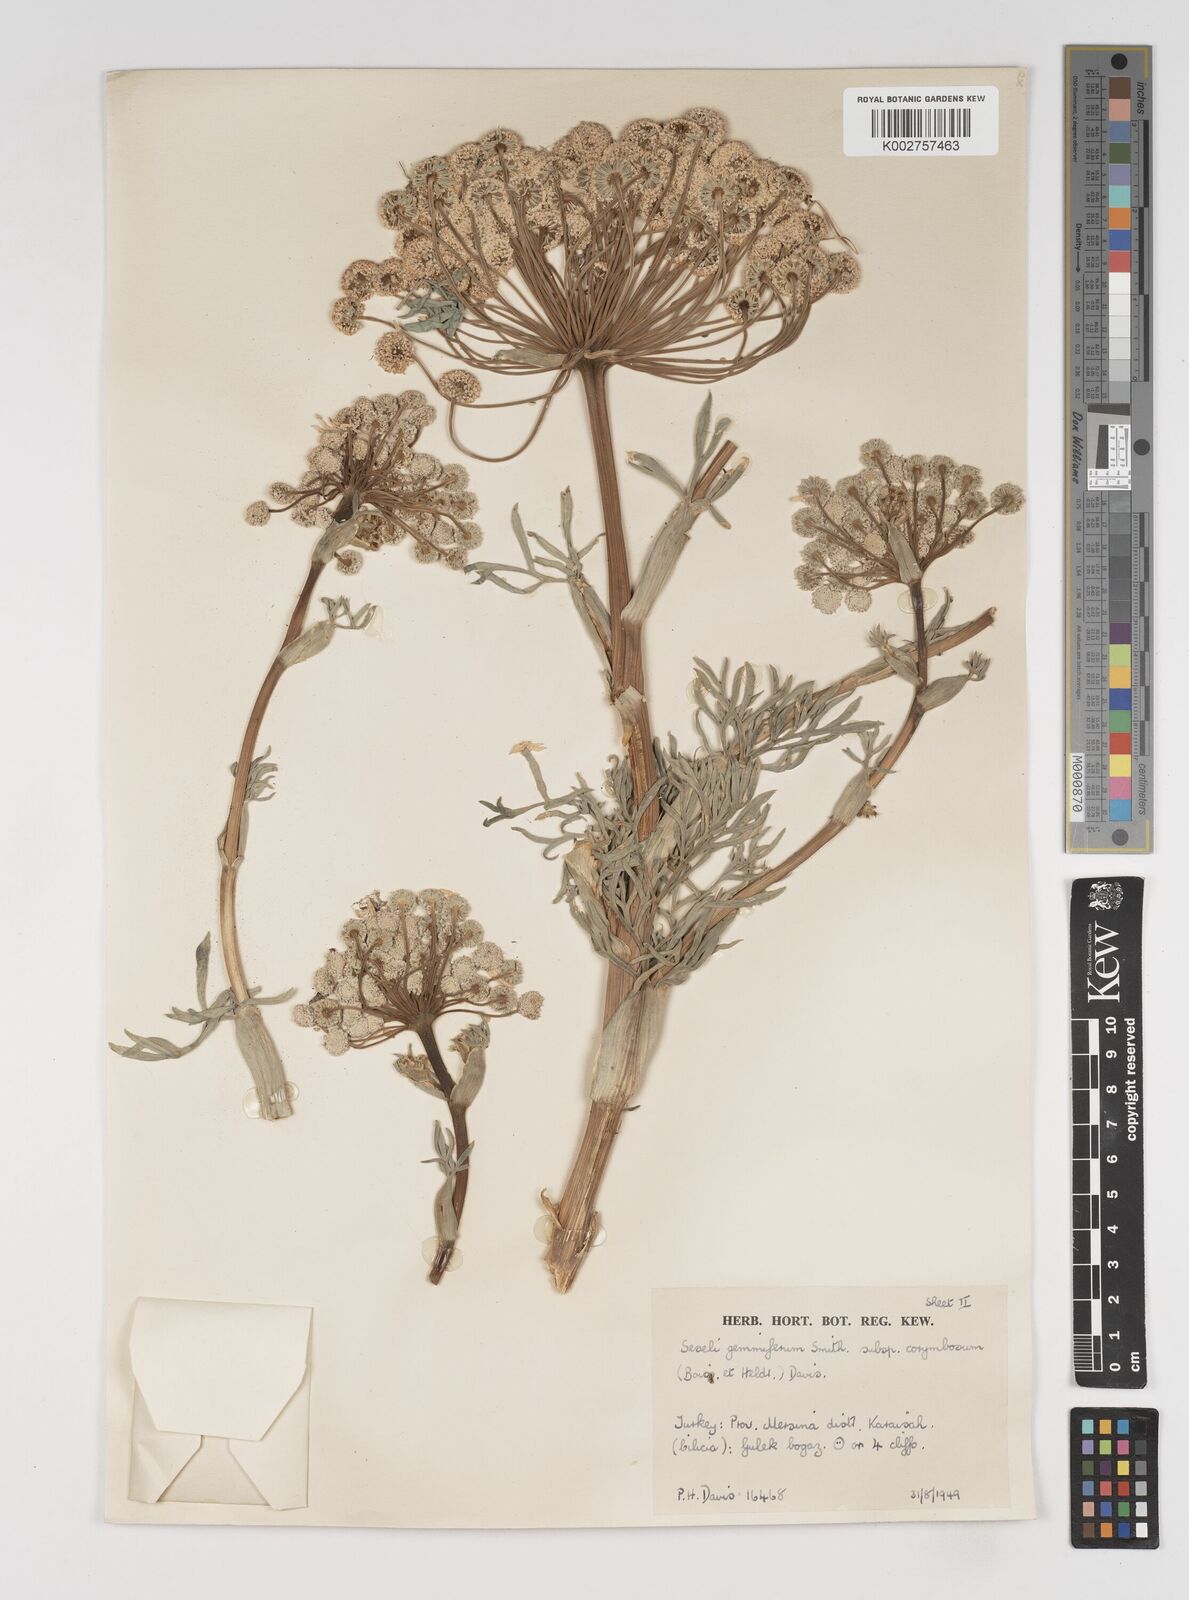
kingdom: Plantae
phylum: Tracheophyta
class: Magnoliopsida
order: Apiales
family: Apiaceae
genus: Seseli
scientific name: Seseli gummiferum
